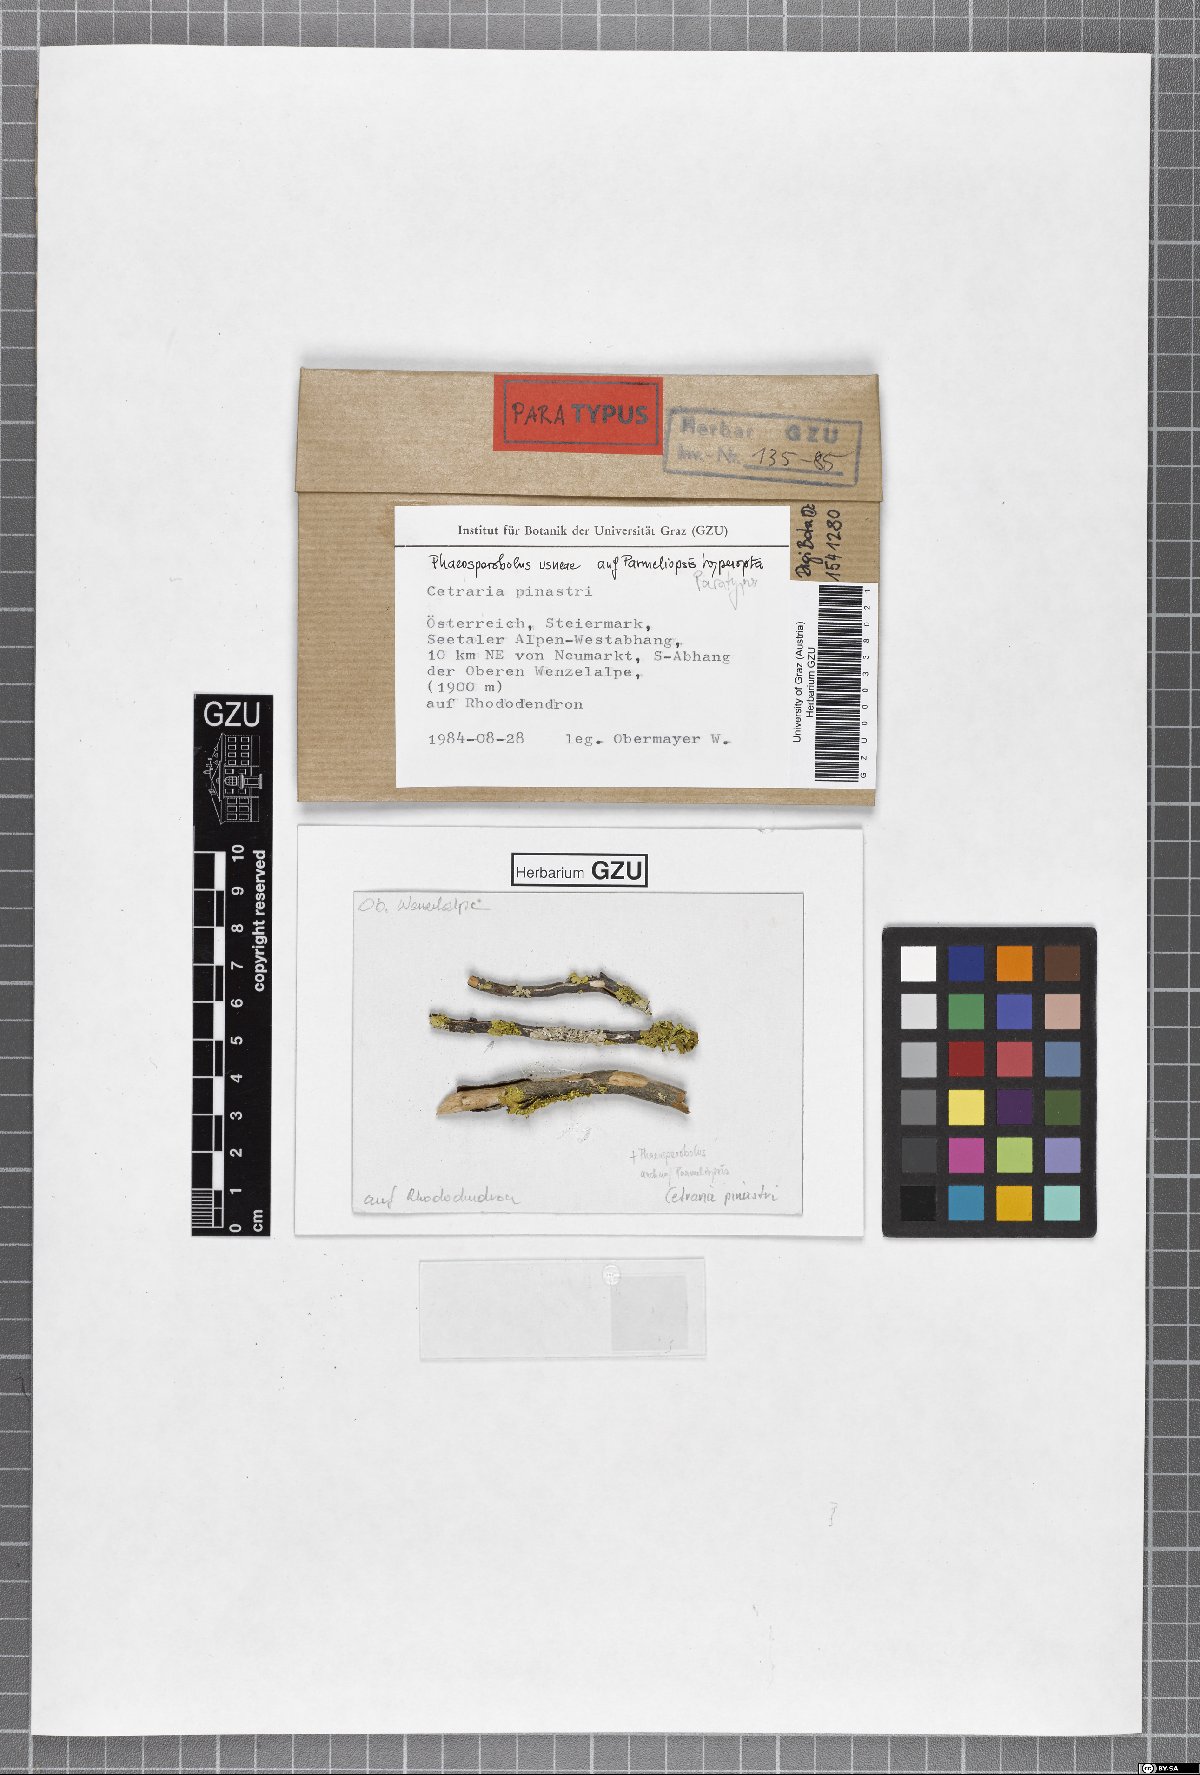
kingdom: Fungi
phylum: Ascomycota
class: Arthoniomycetes
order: Lichenostigmatales
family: Phaeococcomycetaceae
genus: Phaeosporobolus
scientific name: Phaeosporobolus usneae
